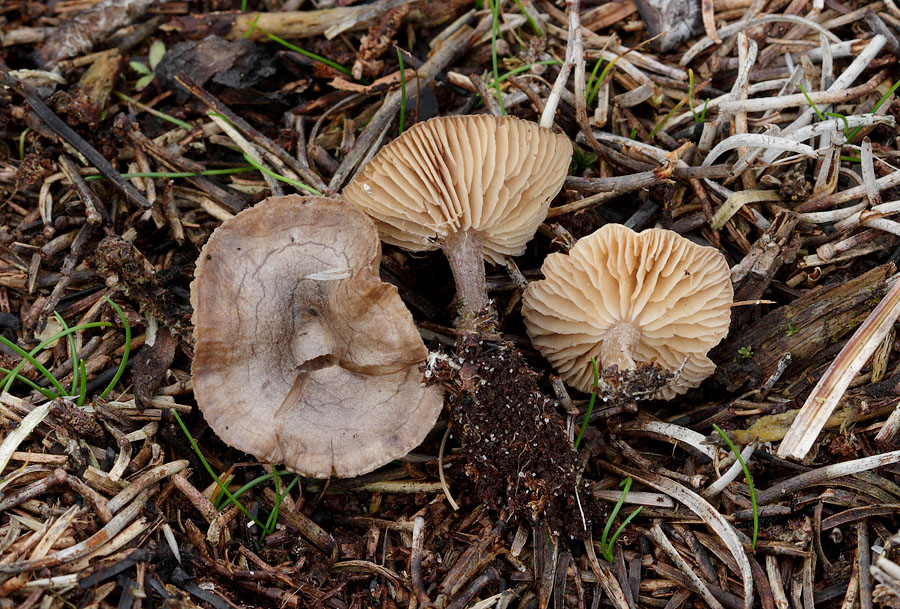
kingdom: Fungi
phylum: Basidiomycota
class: Agaricomycetes
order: Agaricales
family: Entolomataceae
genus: Clitopilus
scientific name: Clitopilus caelatus
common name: gråbrun troldhat
